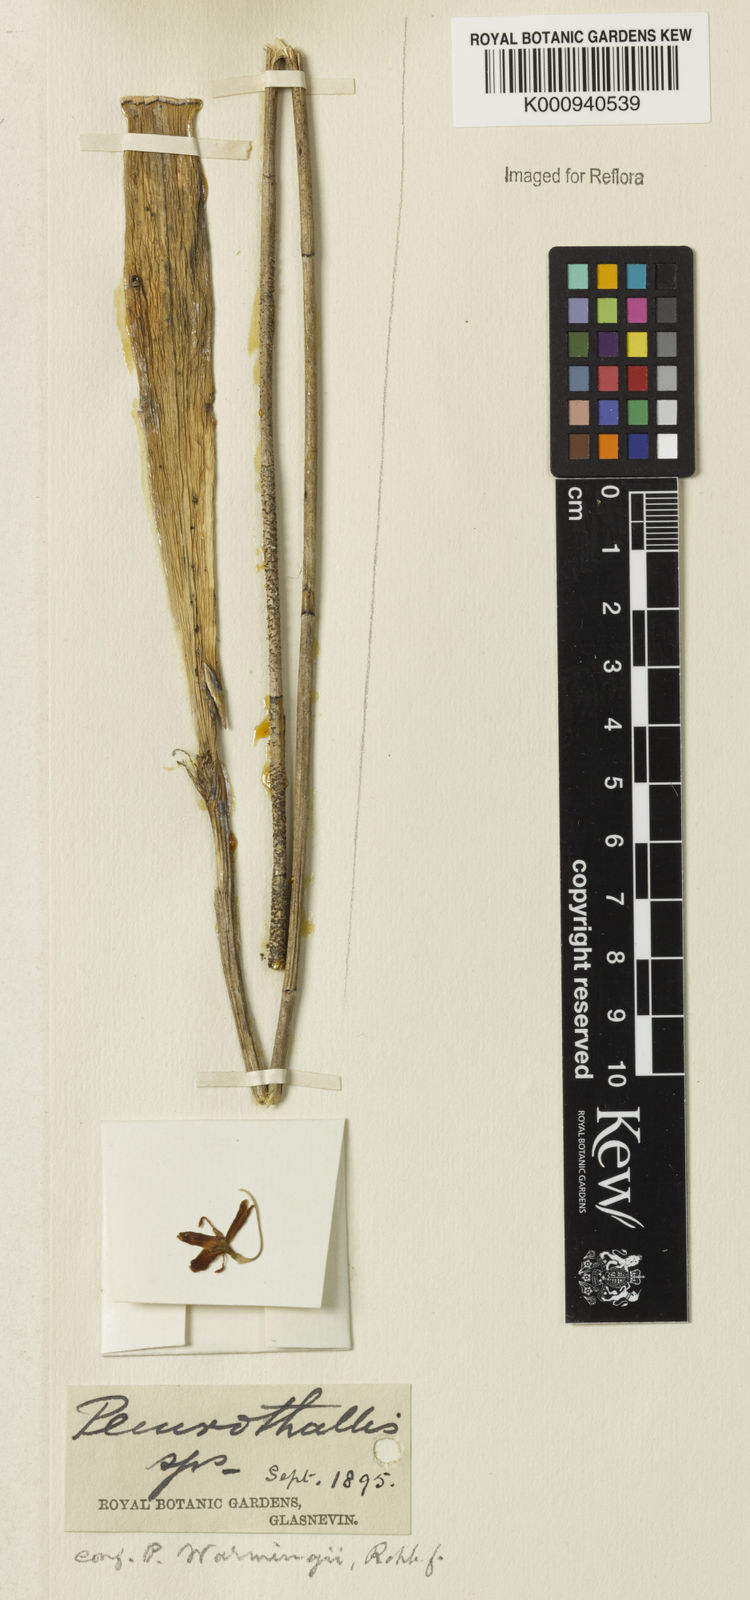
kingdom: Plantae
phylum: Tracheophyta
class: Liliopsida
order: Asparagales
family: Orchidaceae
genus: Myoxanthus
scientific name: Myoxanthus lonchophyllus
